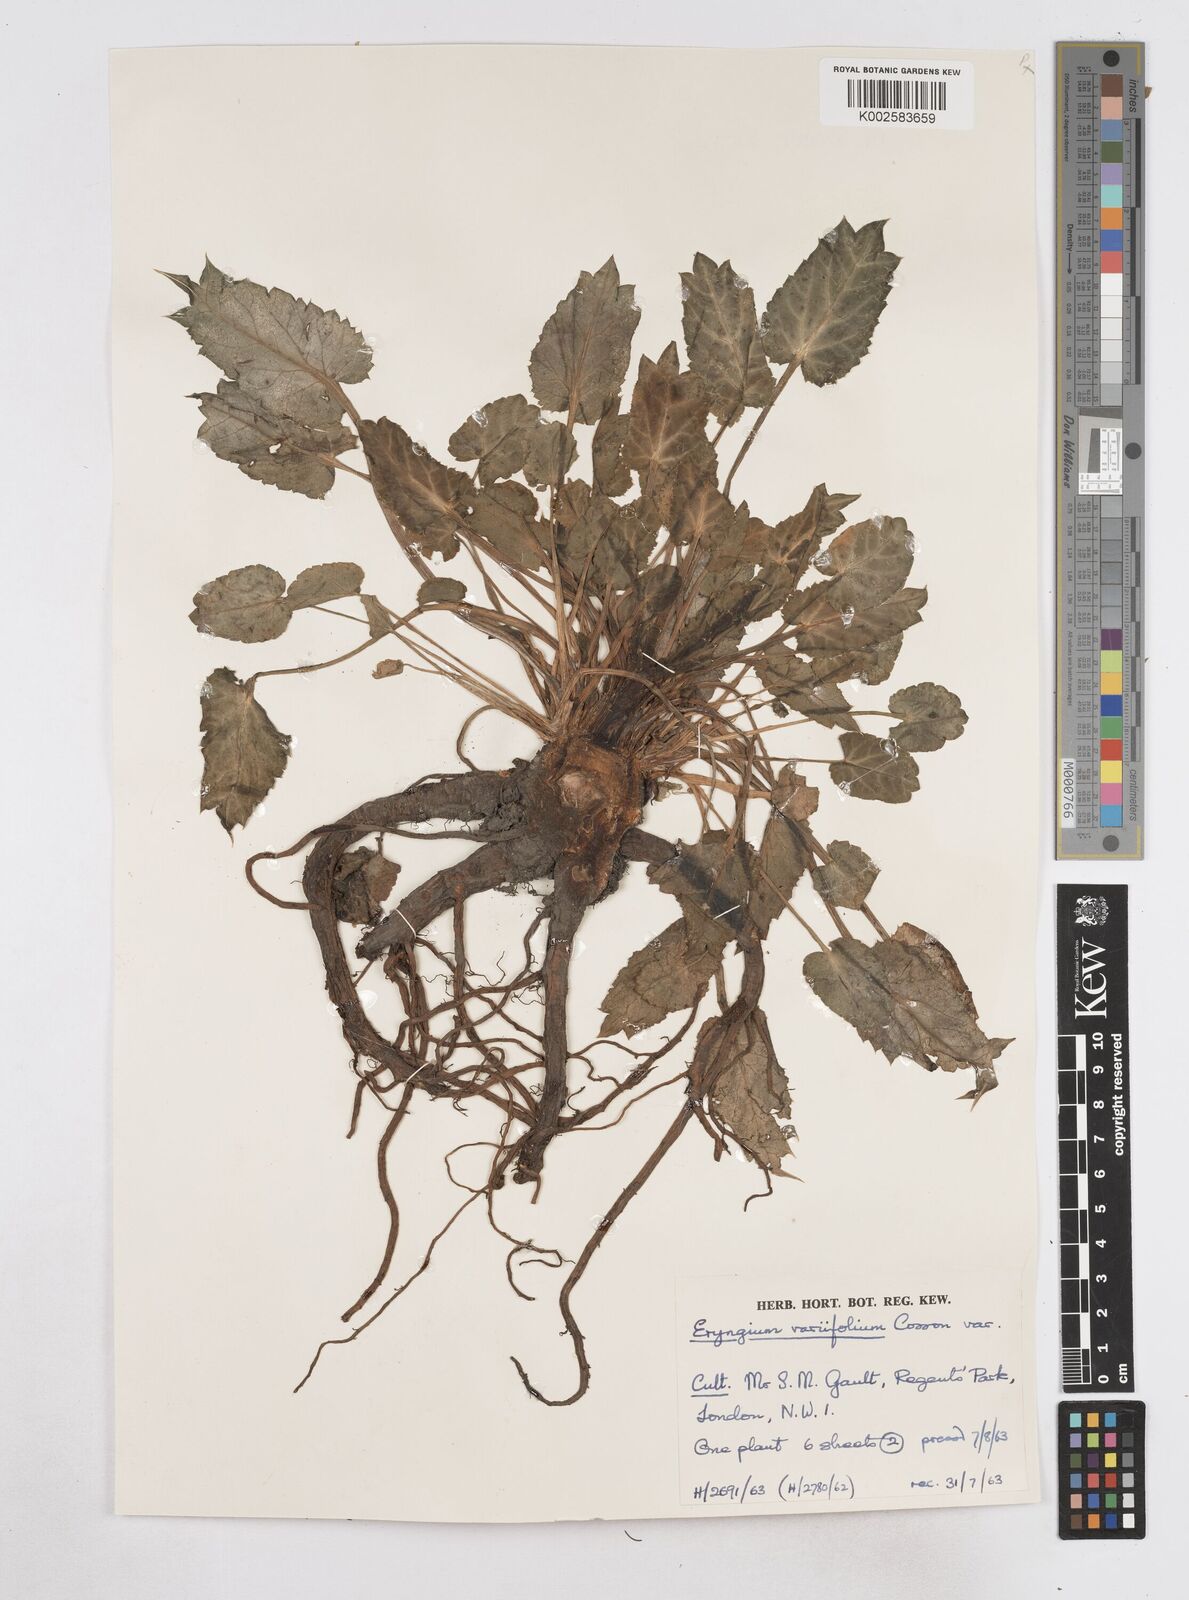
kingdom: Plantae
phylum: Tracheophyta
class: Magnoliopsida
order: Apiales
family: Apiaceae
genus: Eryngium
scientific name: Eryngium variifolium
